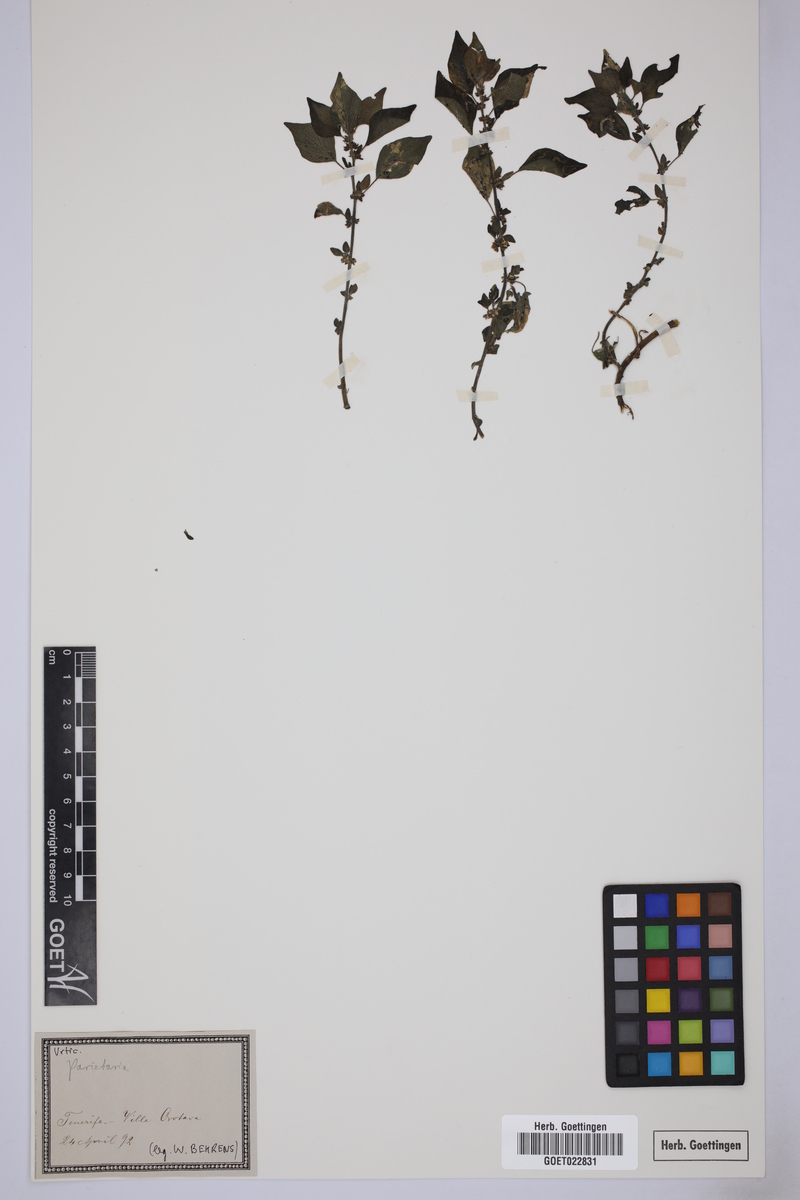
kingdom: Plantae
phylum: Tracheophyta
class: Magnoliopsida
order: Rosales
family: Urticaceae
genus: Parietaria
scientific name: Parietaria
